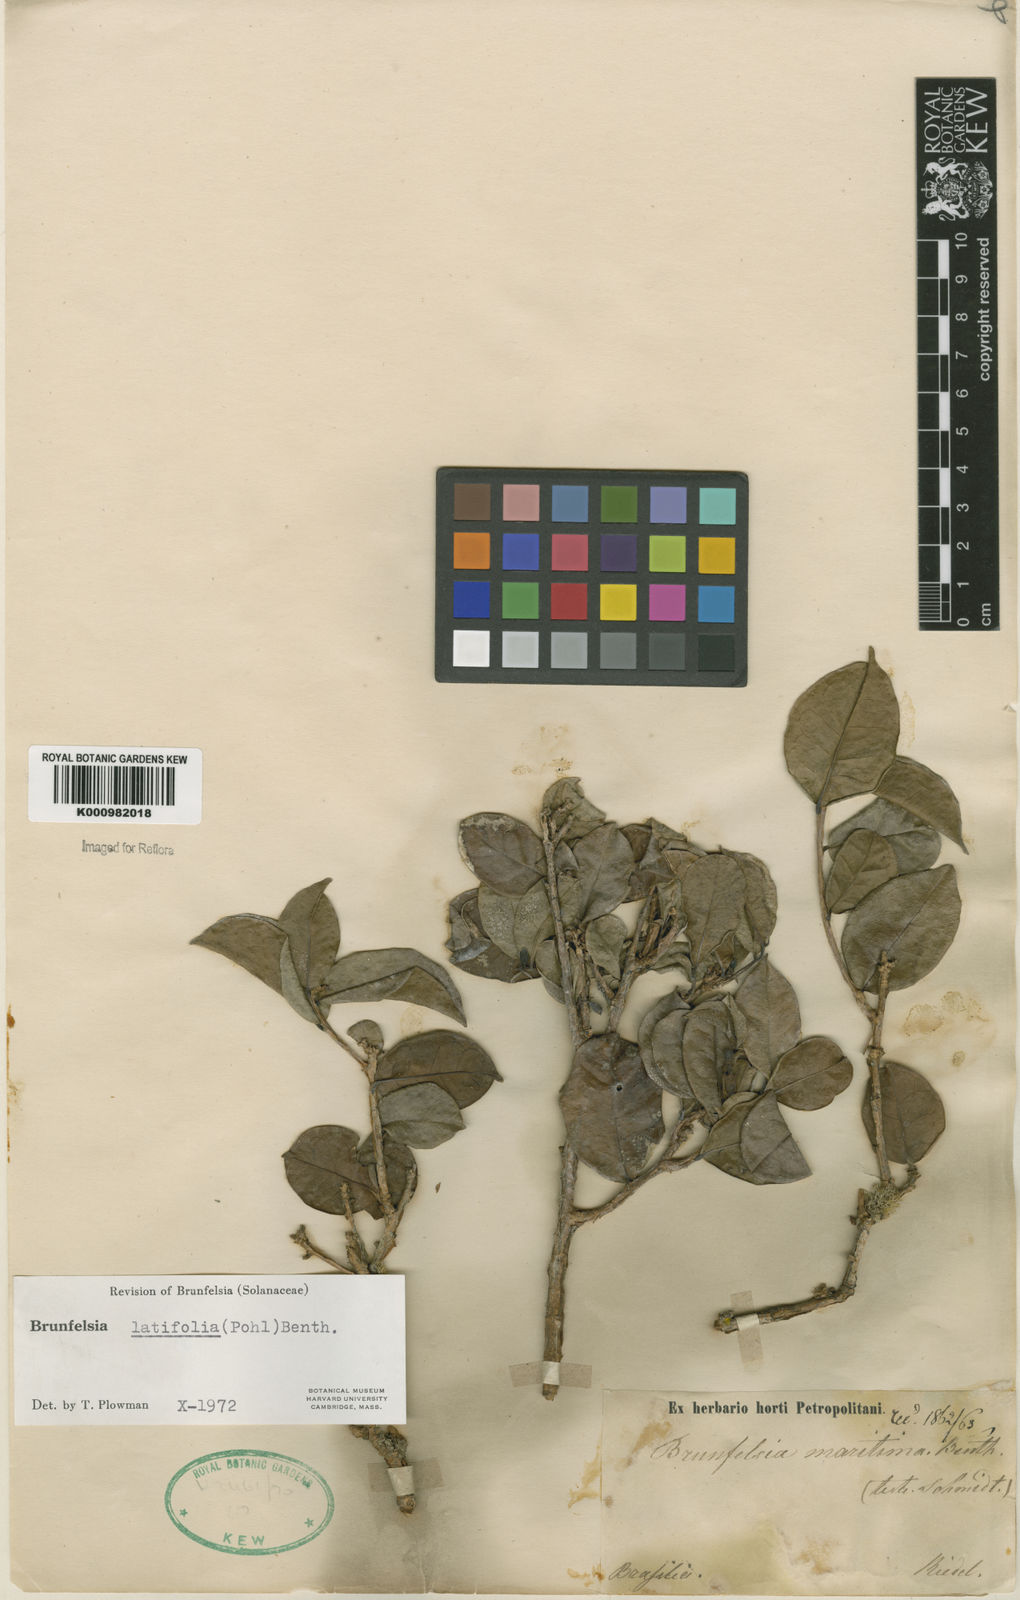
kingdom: Plantae
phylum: Tracheophyta
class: Magnoliopsida
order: Solanales
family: Solanaceae
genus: Brunfelsia
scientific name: Brunfelsia latifolia
